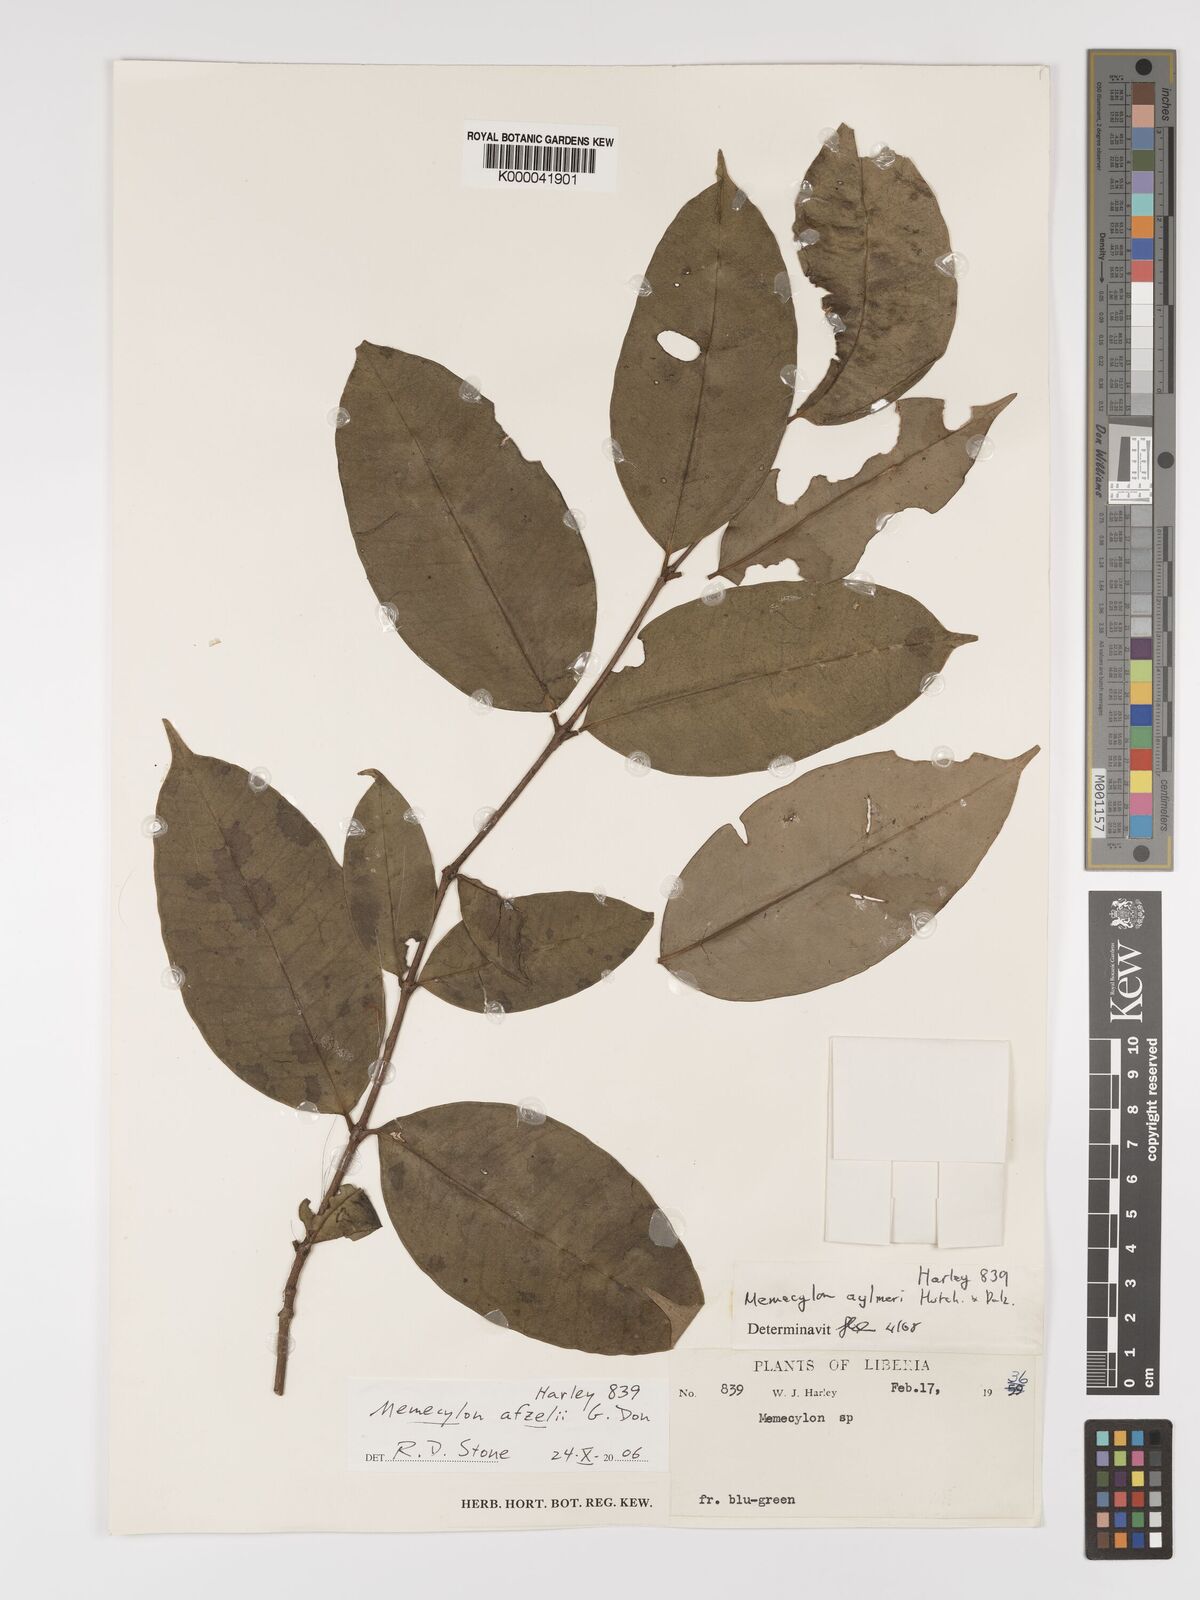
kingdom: Plantae
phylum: Tracheophyta
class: Magnoliopsida
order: Myrtales
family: Melastomataceae
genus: Memecylon
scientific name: Memecylon afzelii
